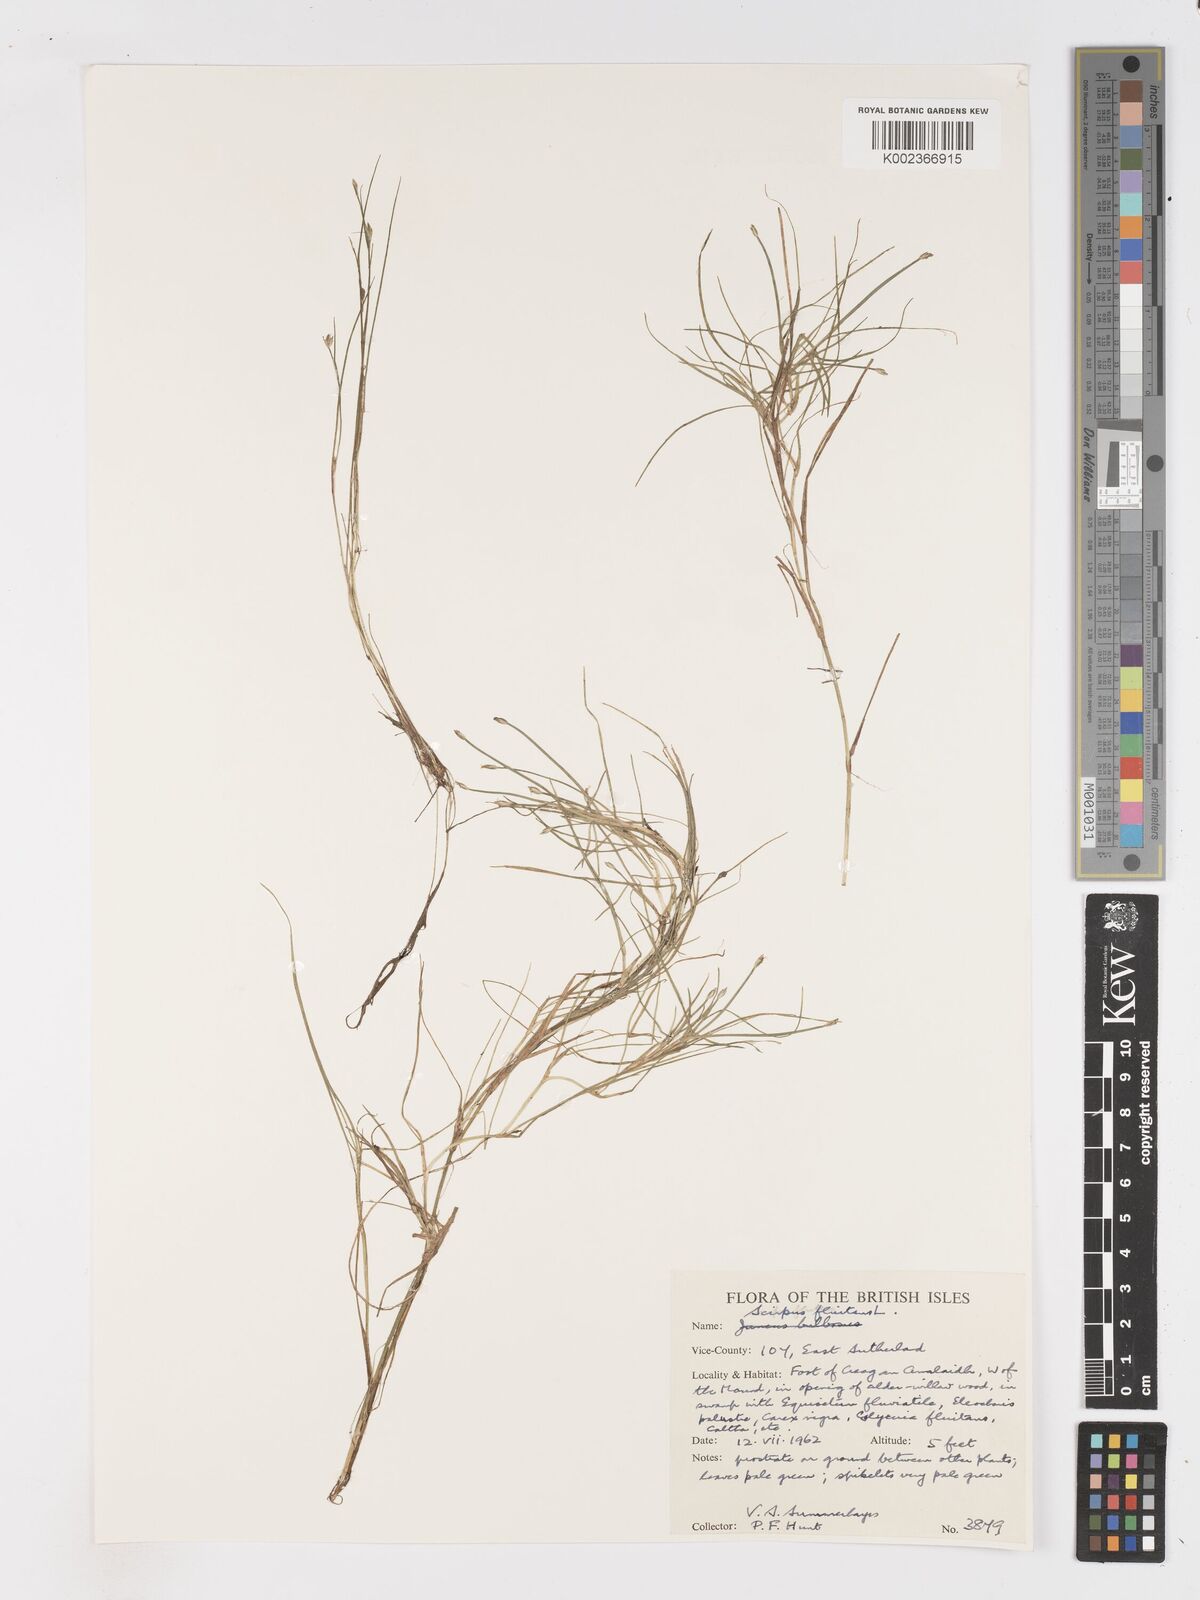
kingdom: Plantae
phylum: Tracheophyta
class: Liliopsida
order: Poales
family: Cyperaceae
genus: Isolepis
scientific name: Isolepis fluitans
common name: Floating club-rush
